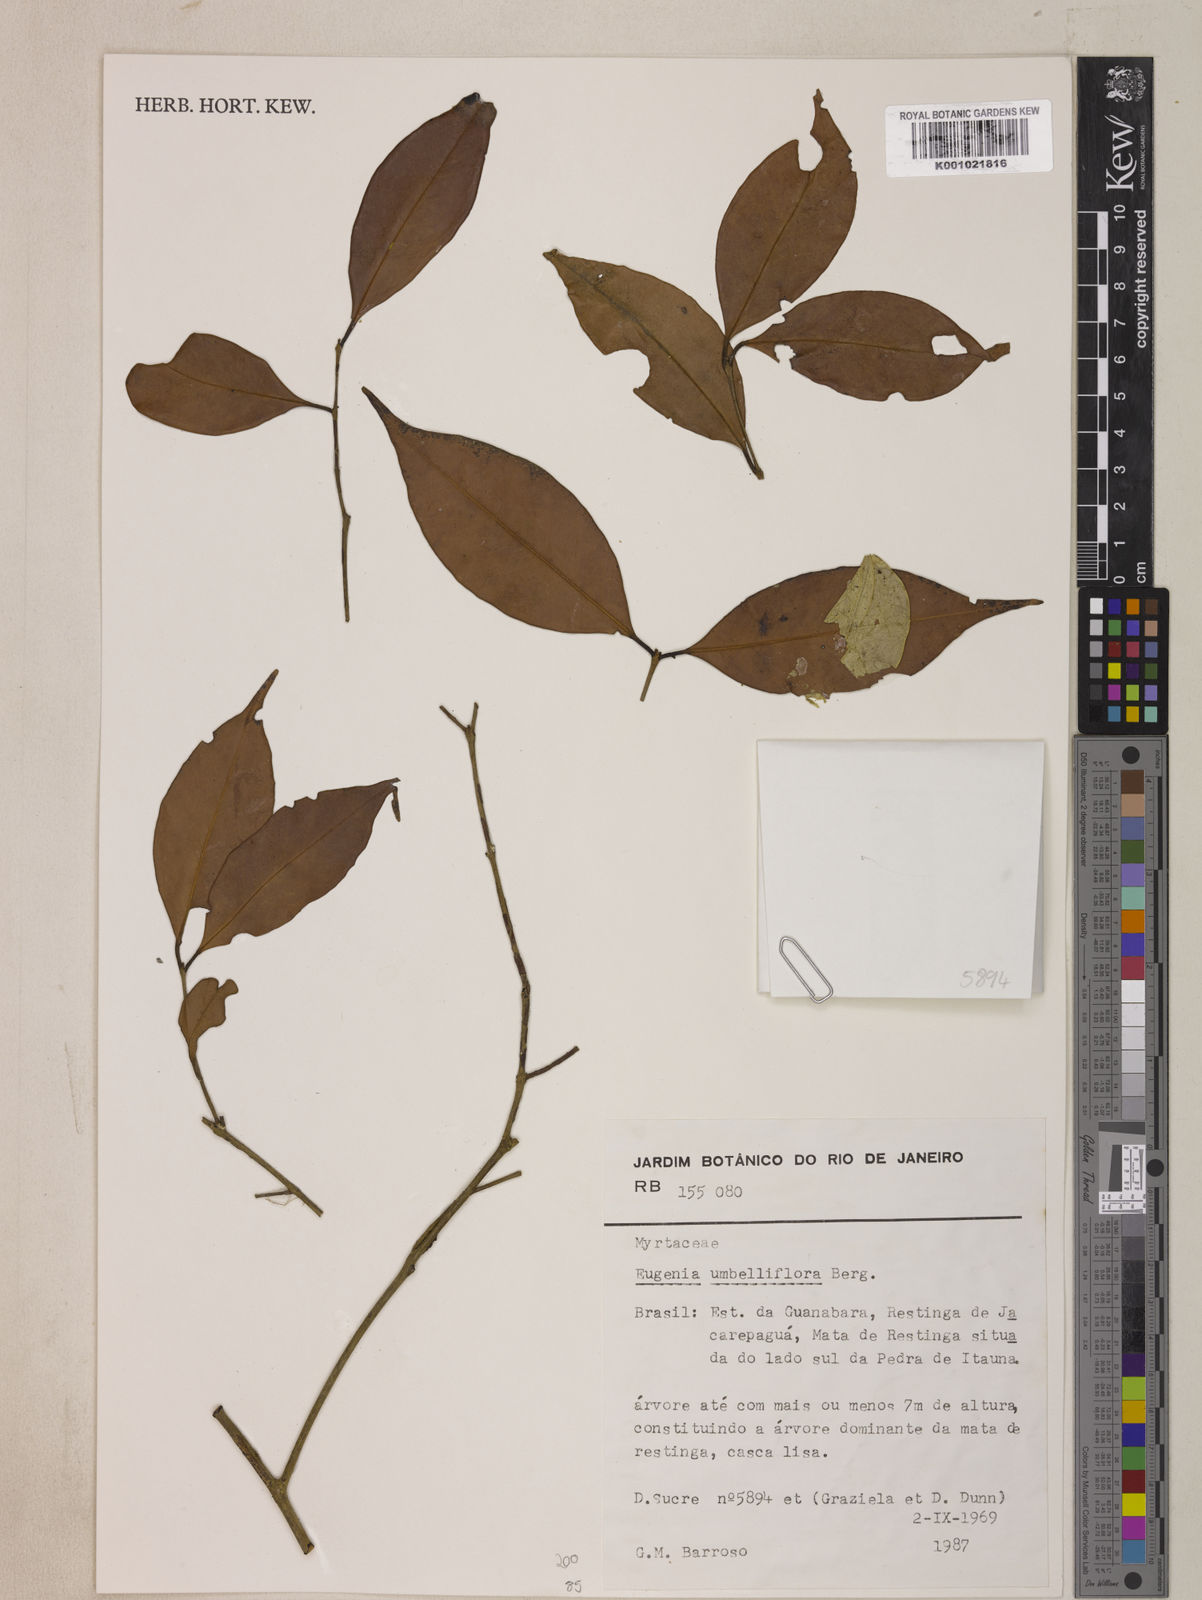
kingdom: Plantae
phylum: Tracheophyta
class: Magnoliopsida
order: Myrtales
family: Myrtaceae
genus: Eugenia
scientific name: Eugenia astringens
